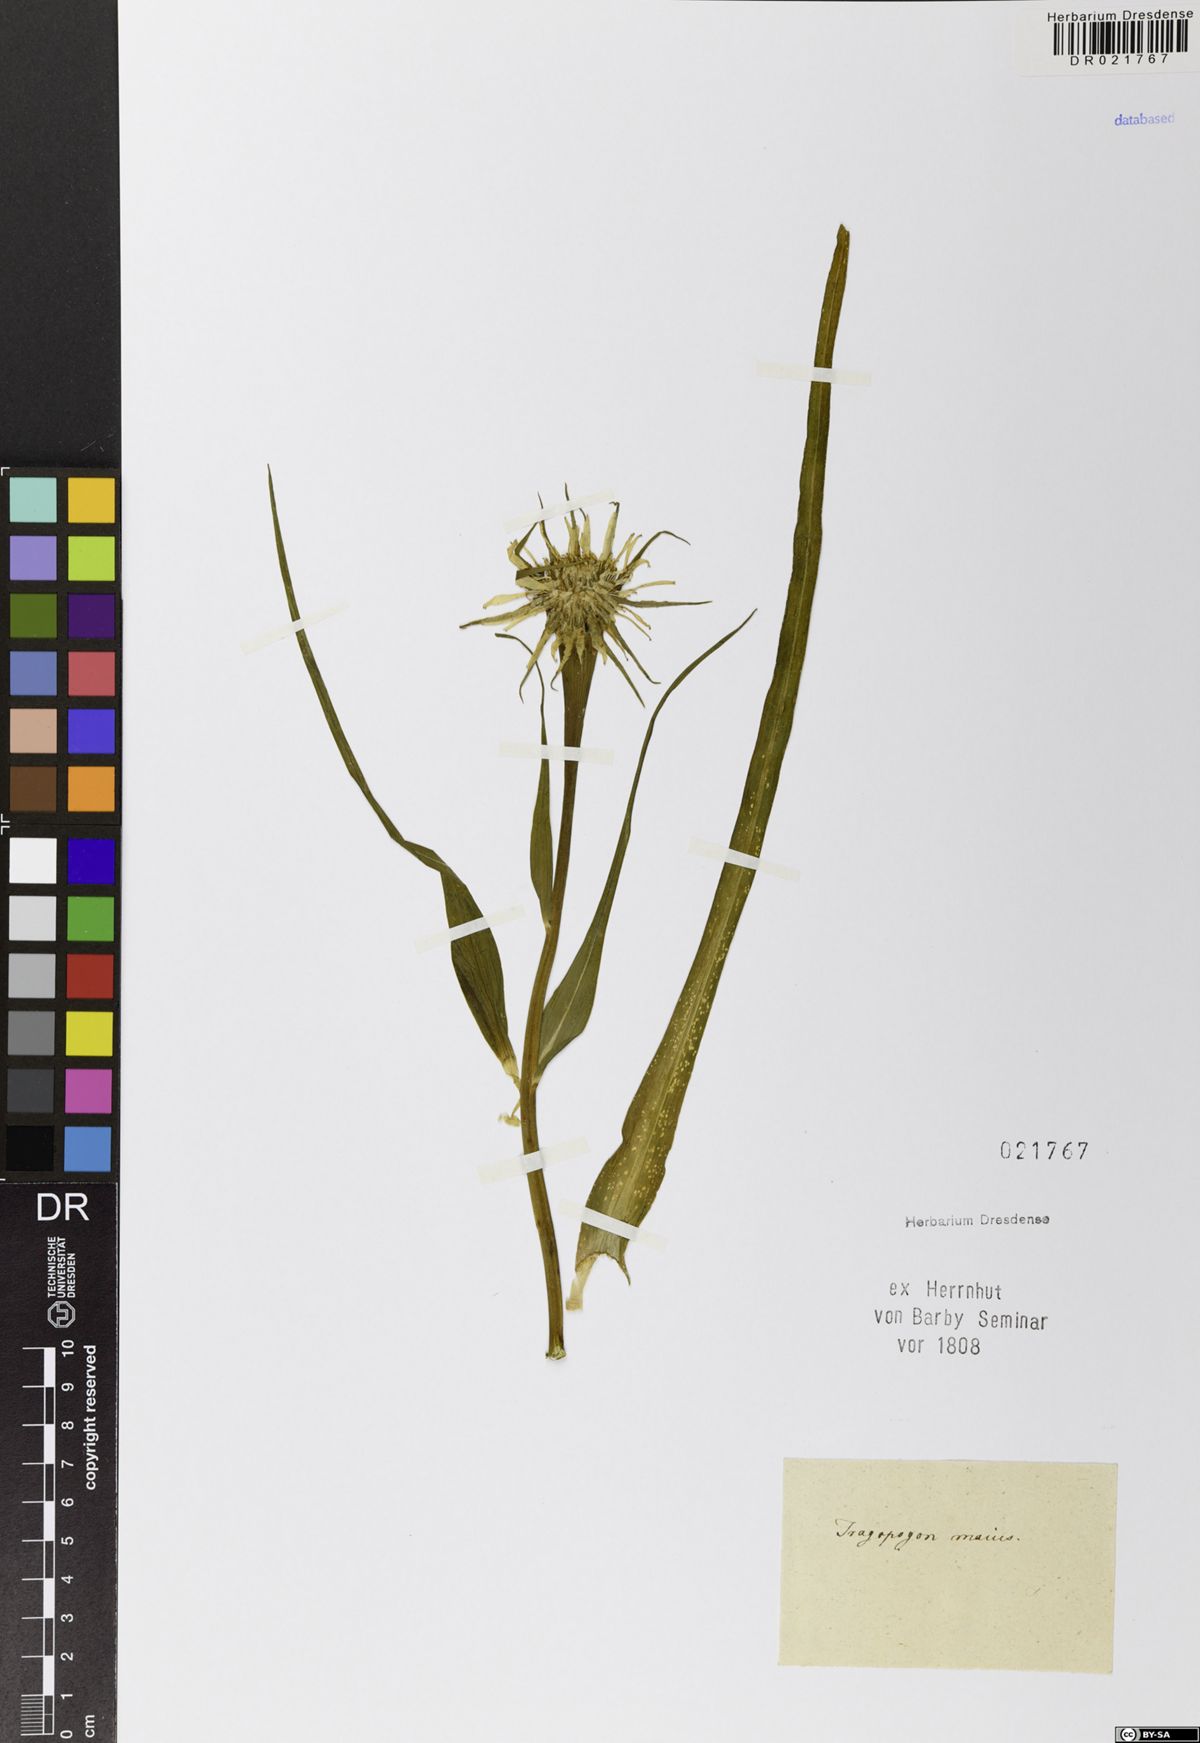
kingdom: Plantae
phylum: Tracheophyta
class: Magnoliopsida
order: Asterales
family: Asteraceae
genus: Tragopogon
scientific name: Tragopogon dubius
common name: Yellow salsify
